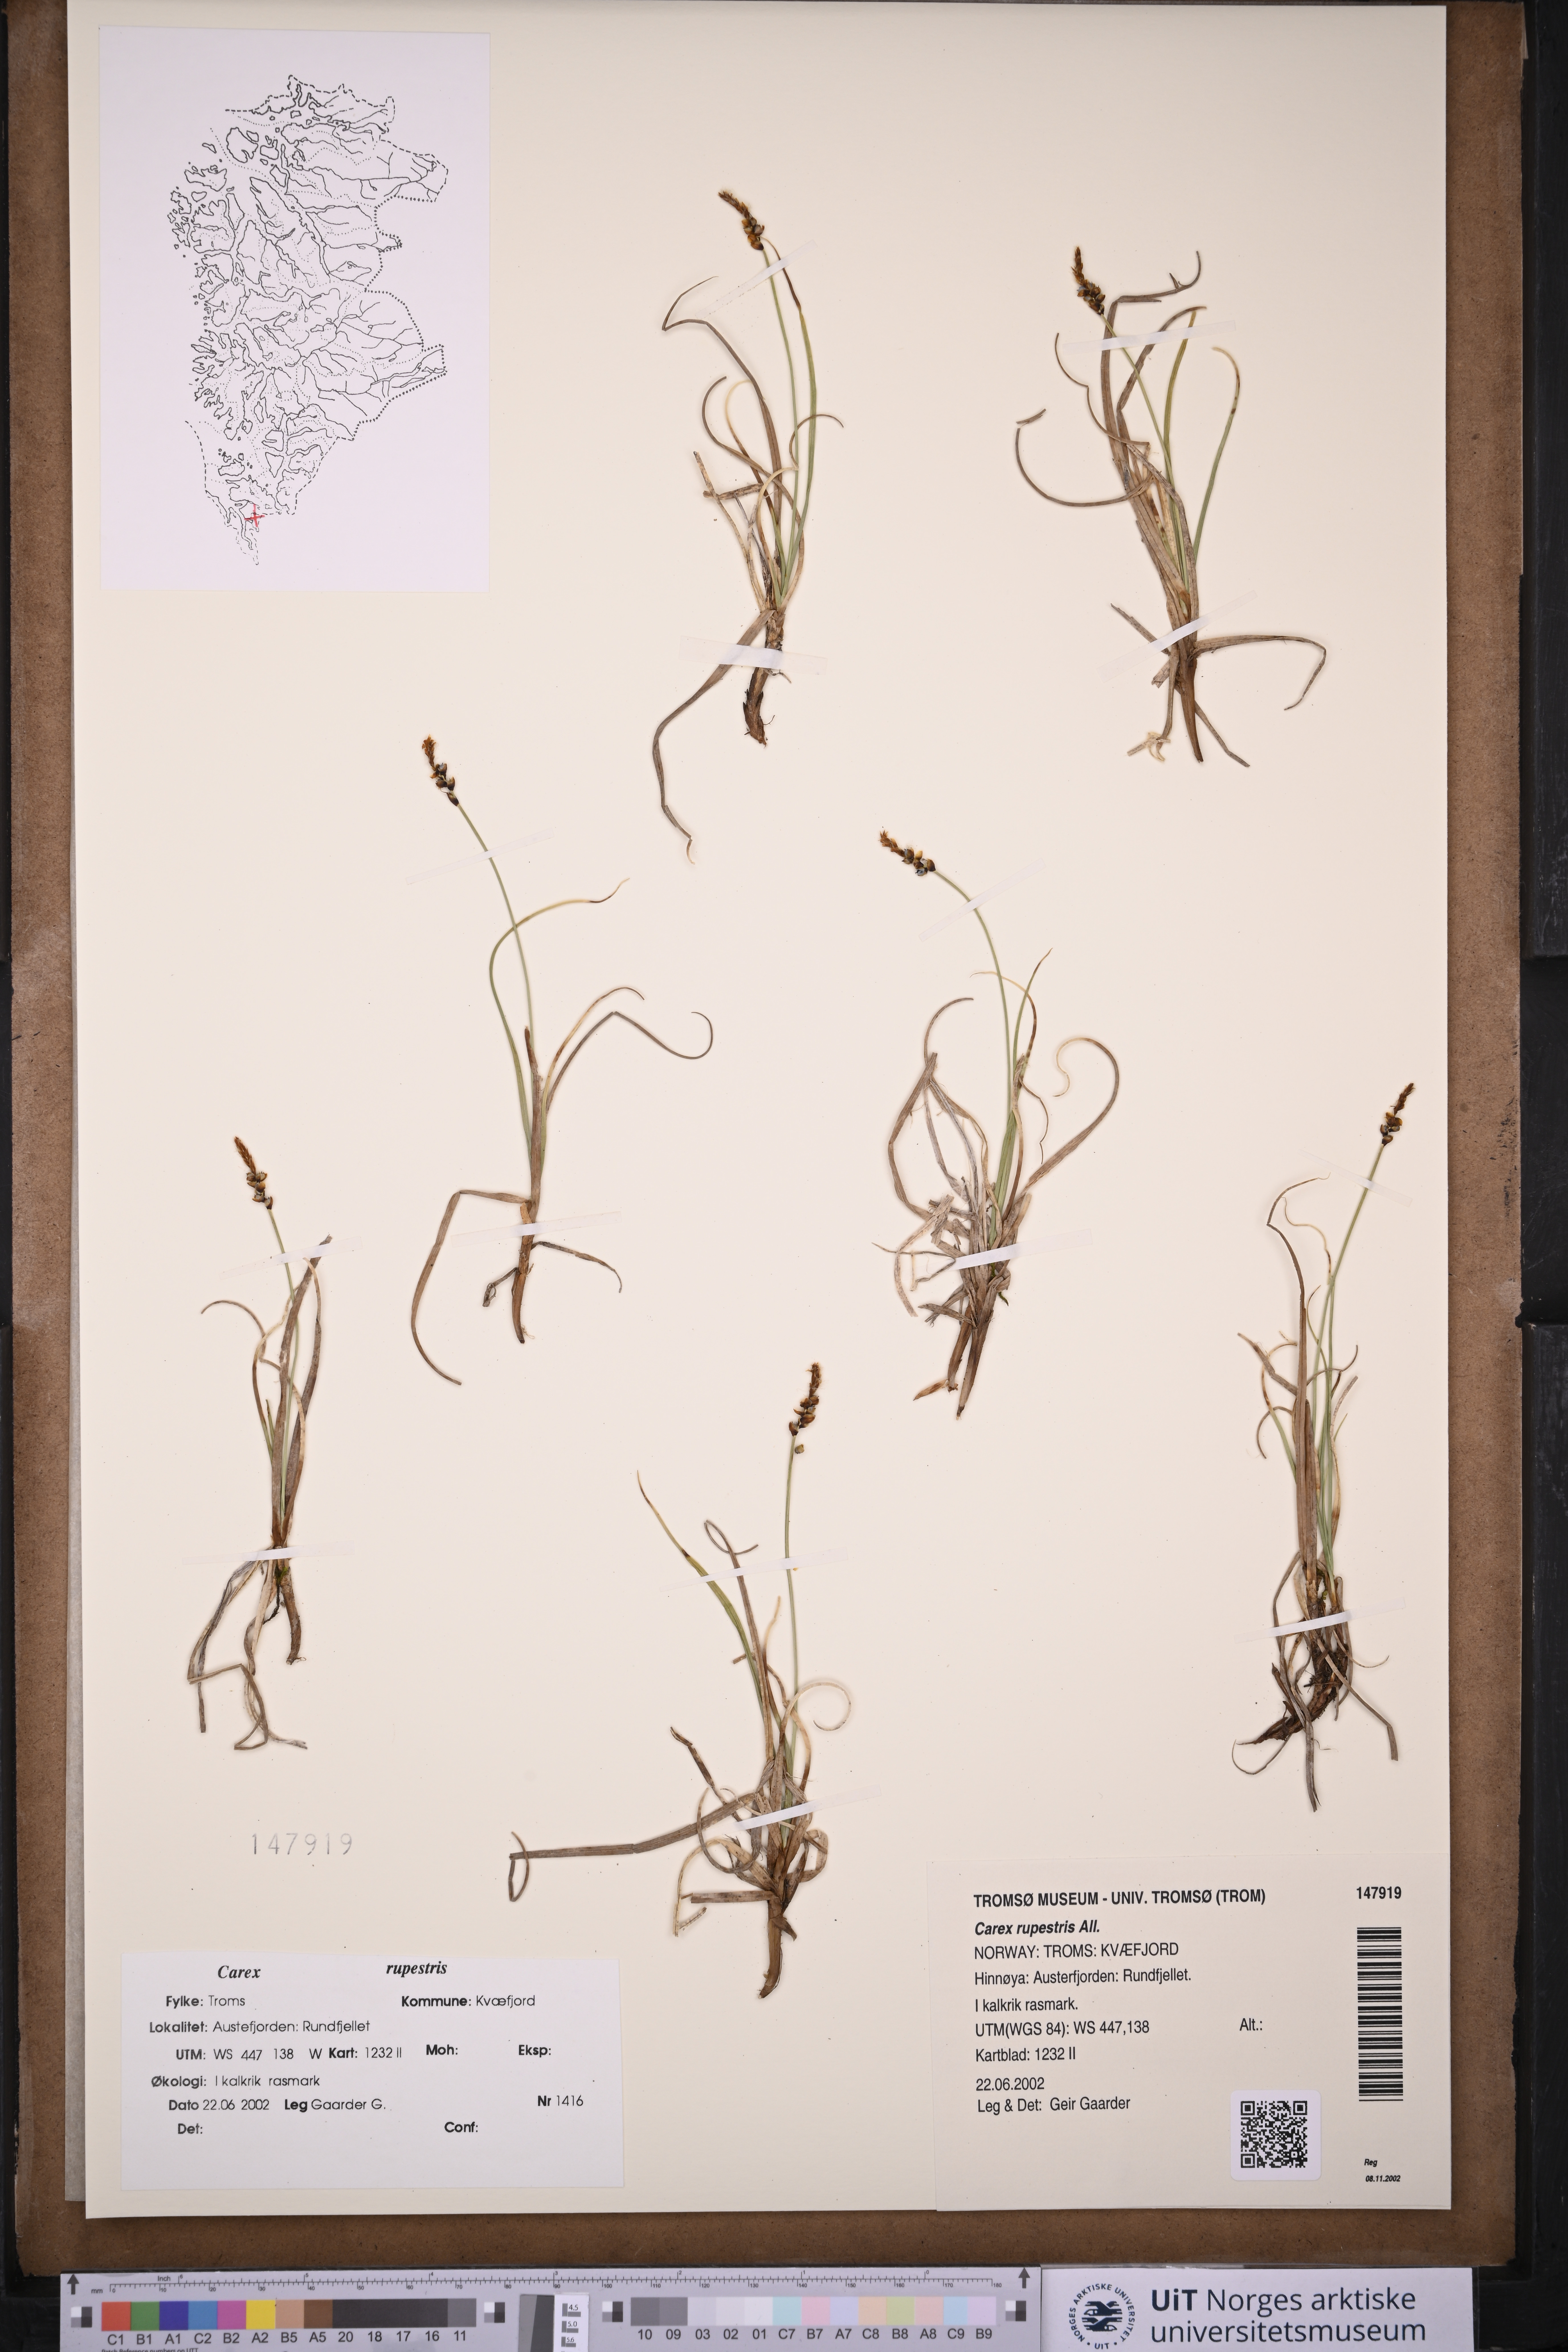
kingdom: Plantae
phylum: Tracheophyta
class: Liliopsida
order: Poales
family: Cyperaceae
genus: Carex
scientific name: Carex rupestris
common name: Rock sedge
